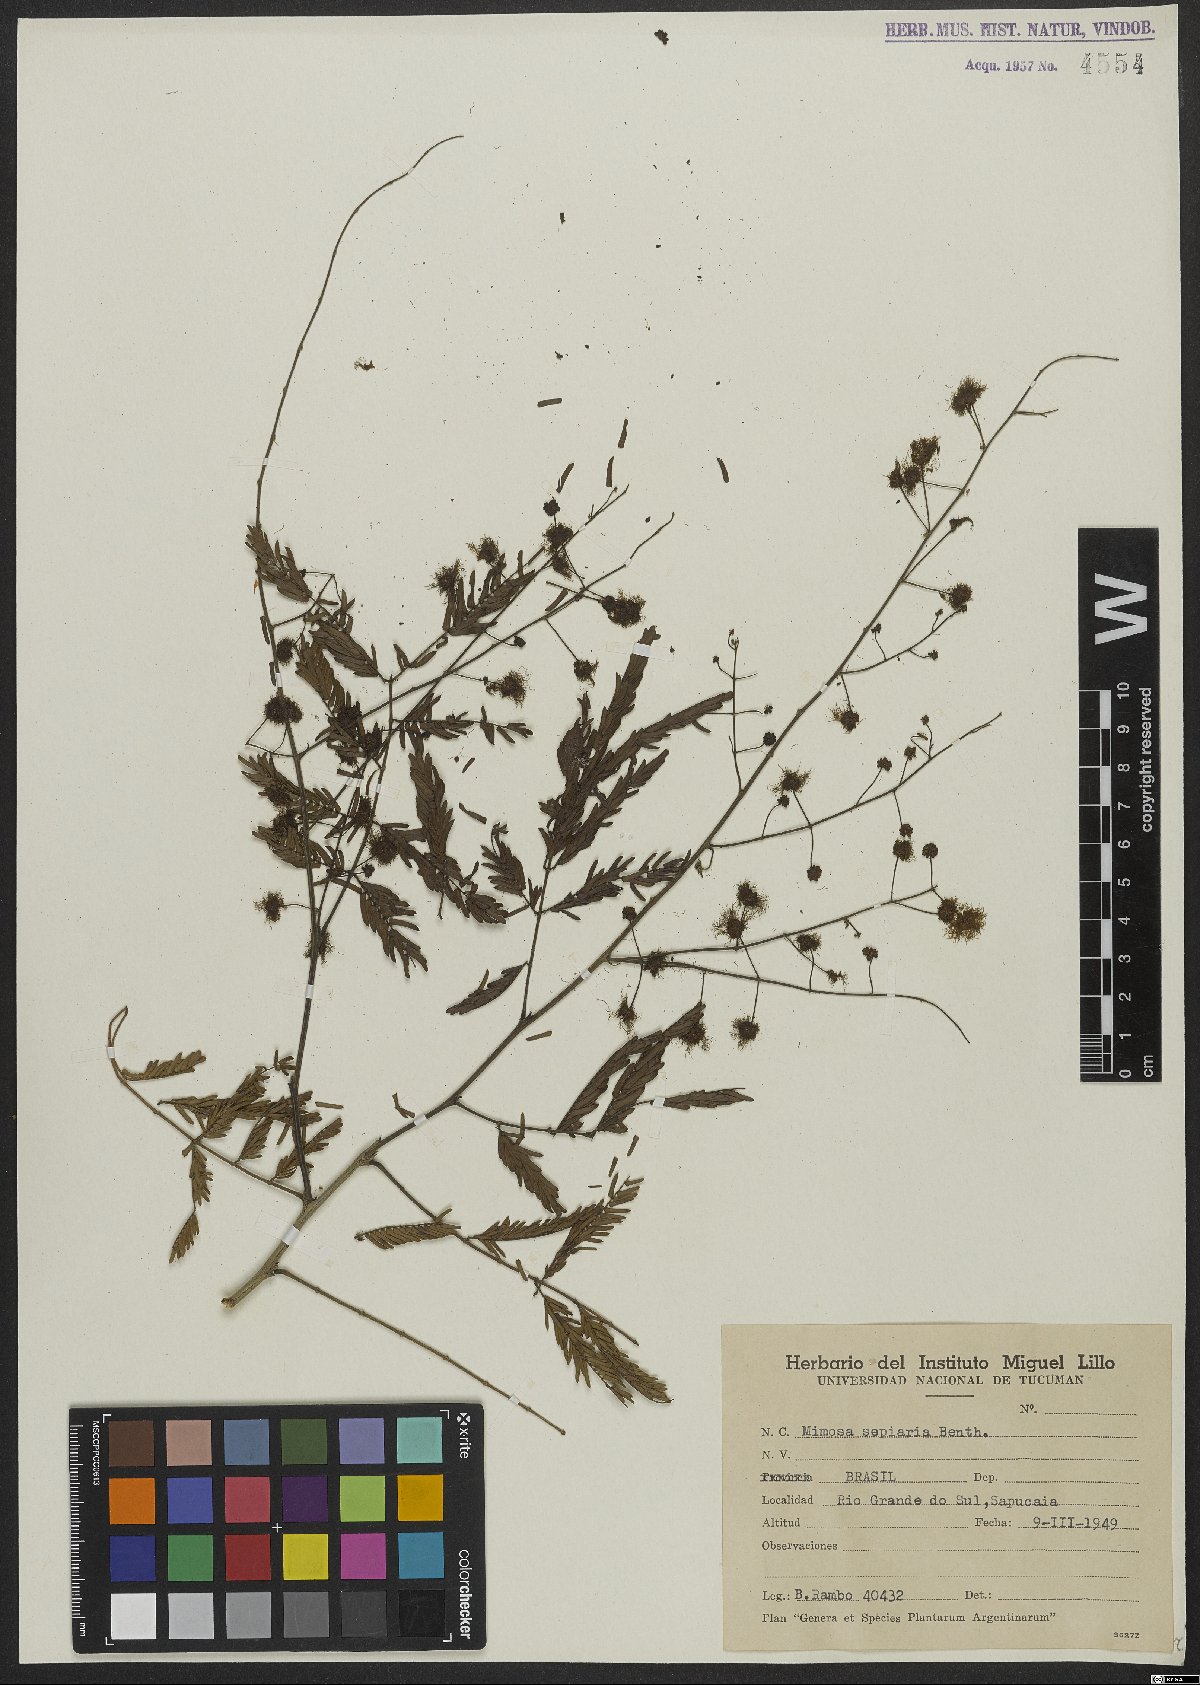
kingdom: Plantae
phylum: Tracheophyta
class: Magnoliopsida
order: Fabales
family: Fabaceae
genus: Mimosa
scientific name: Mimosa bimucronata
